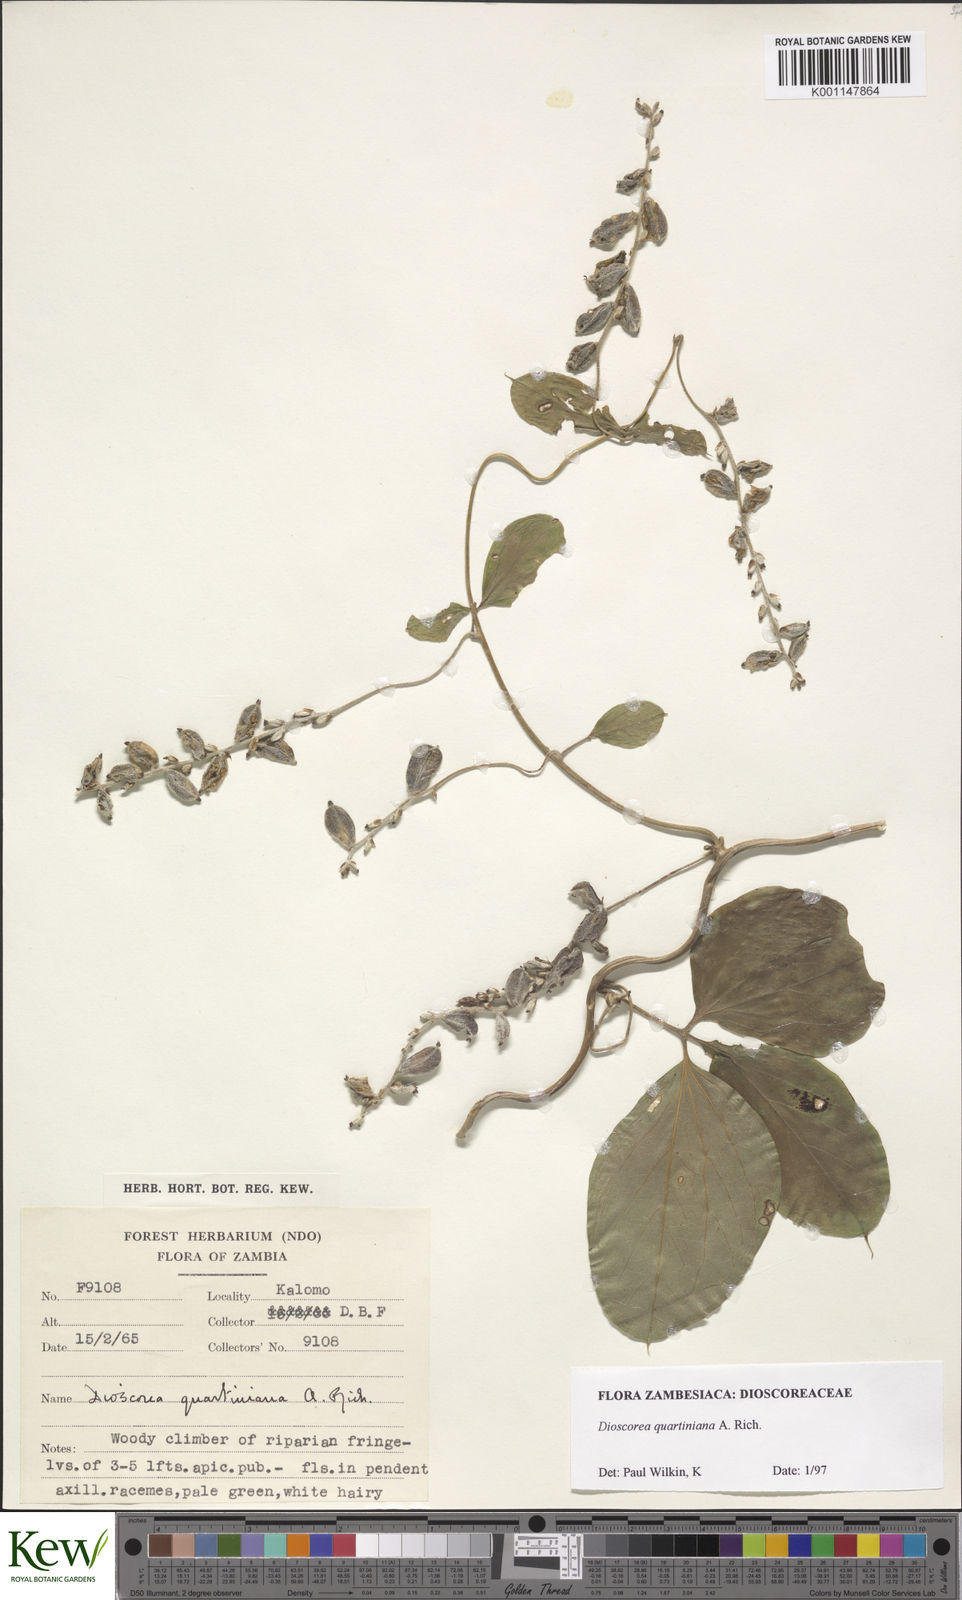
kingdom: Plantae
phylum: Tracheophyta
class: Liliopsida
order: Dioscoreales
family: Dioscoreaceae
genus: Dioscorea
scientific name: Dioscorea quartiniana
